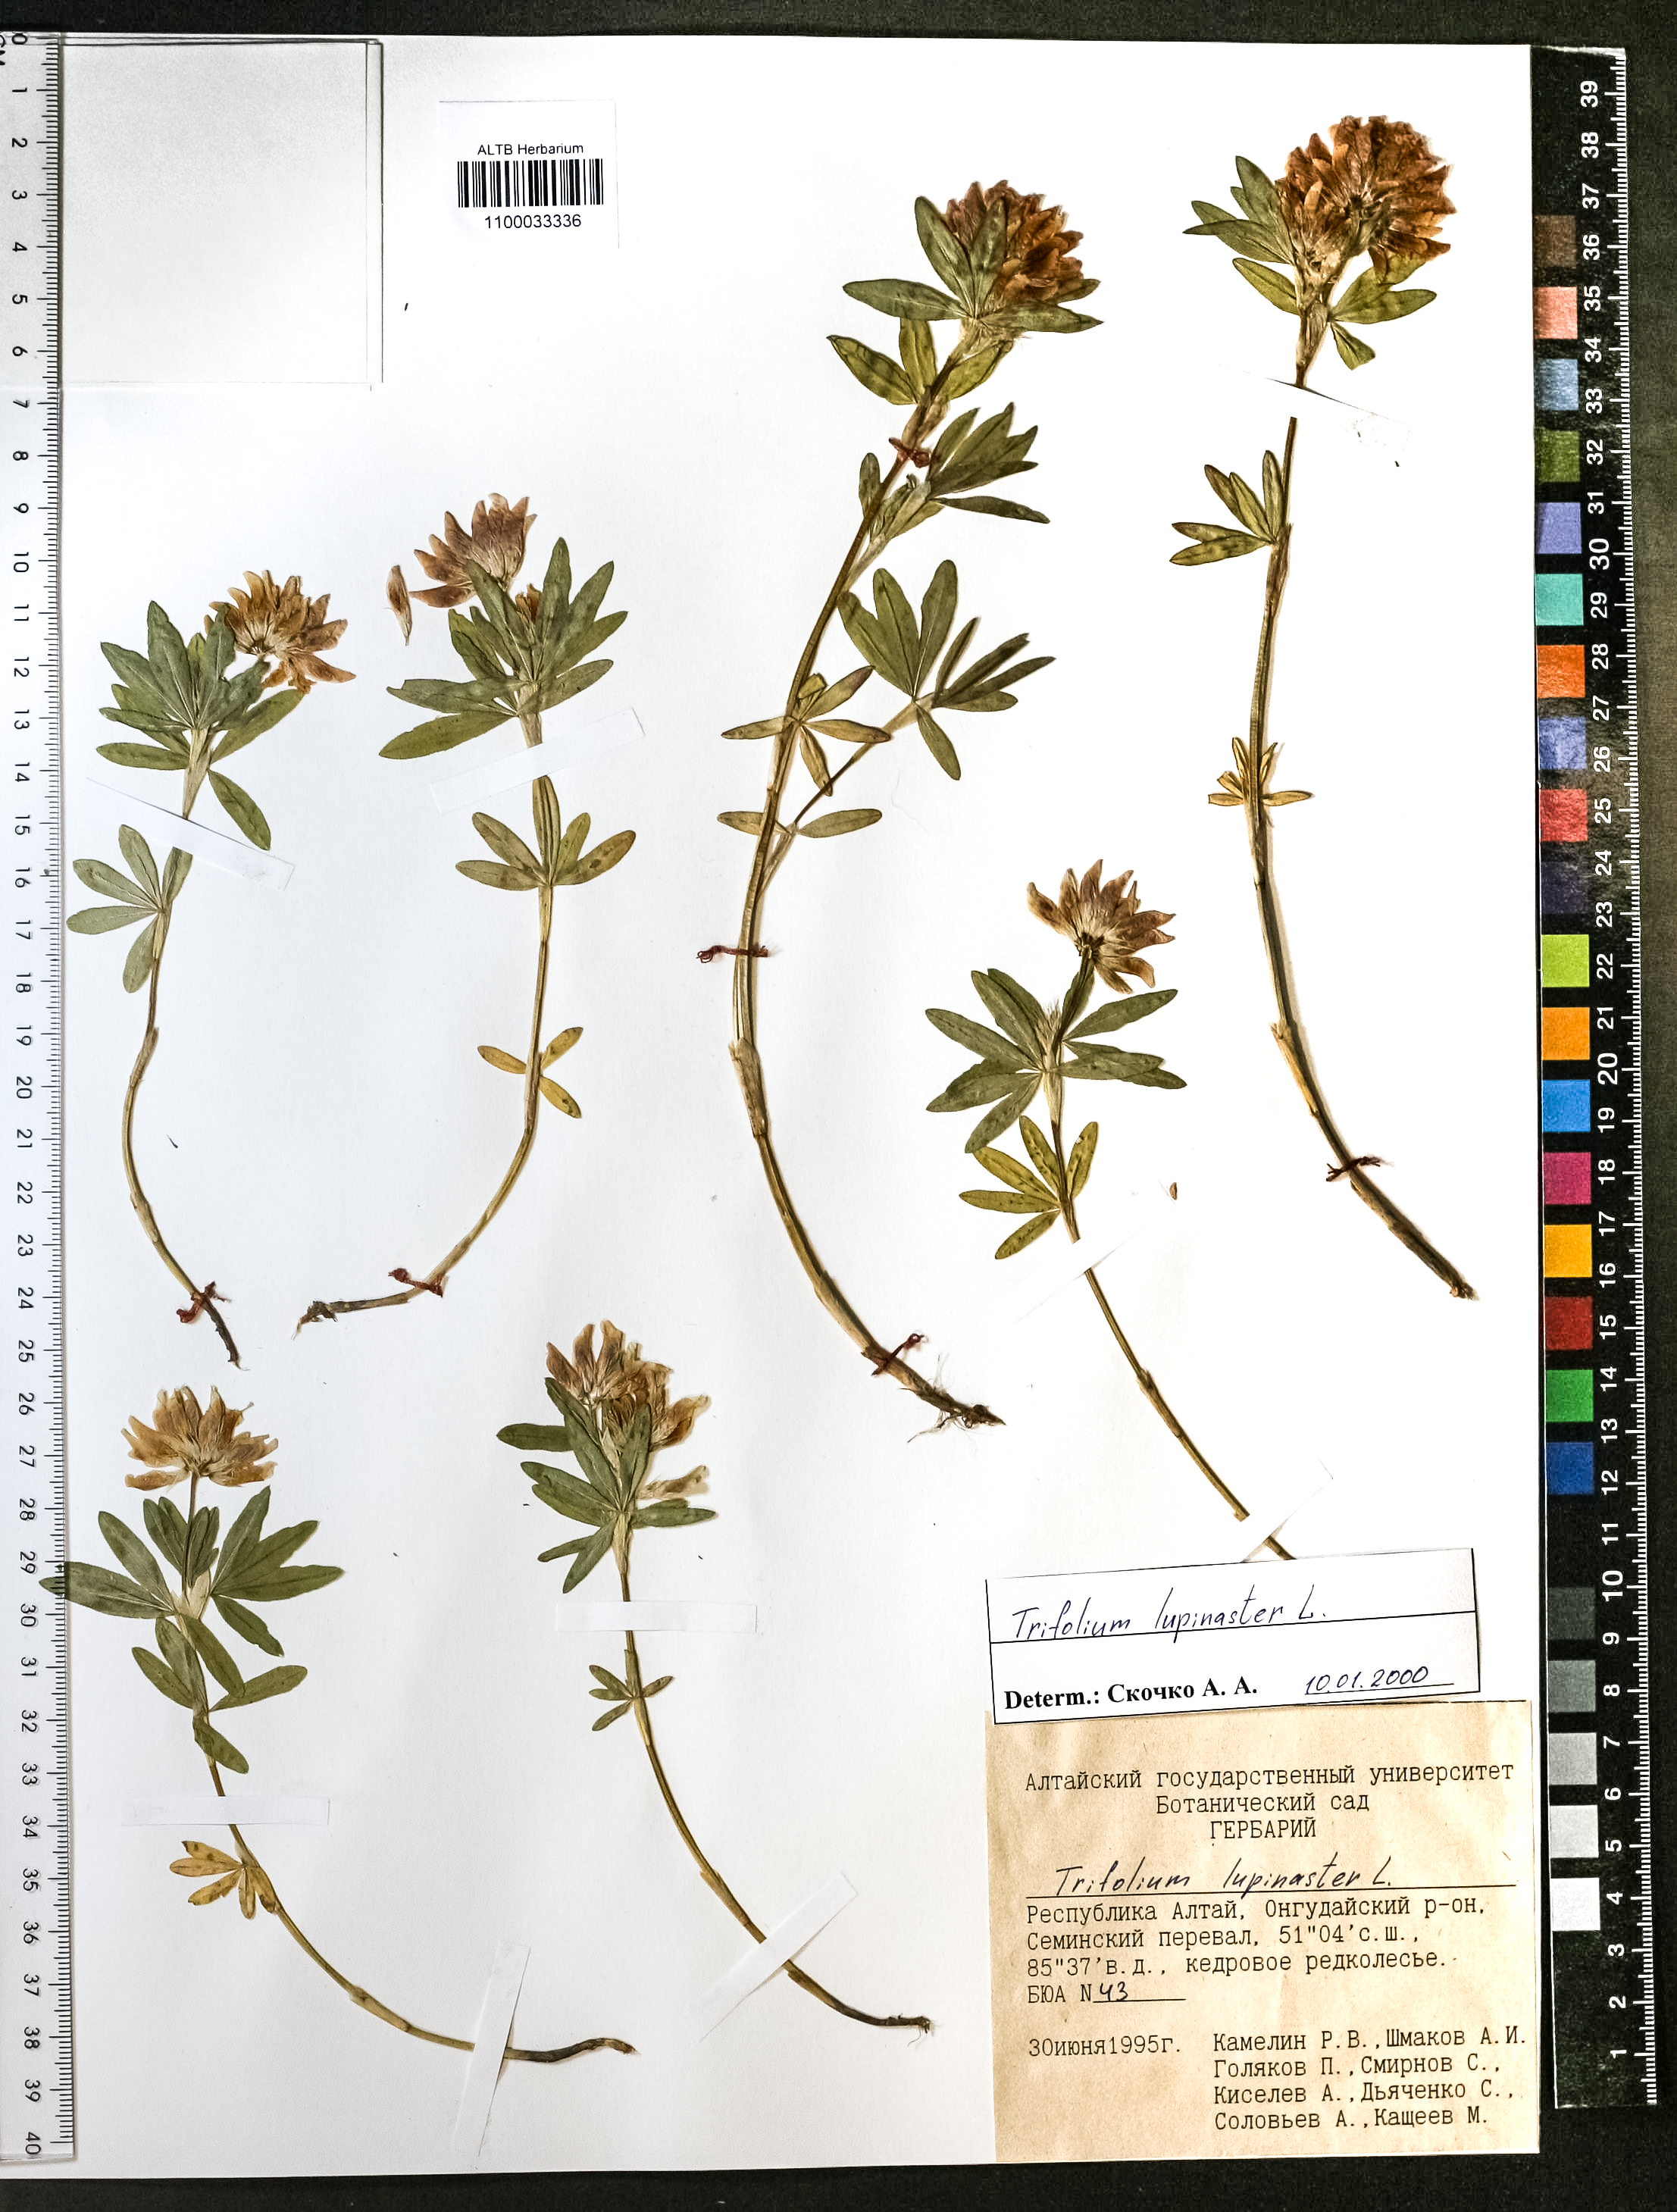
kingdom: Plantae
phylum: Tracheophyta
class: Magnoliopsida
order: Fabales
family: Fabaceae
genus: Trifolium
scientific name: Trifolium lupinaster
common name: Lupine clover
